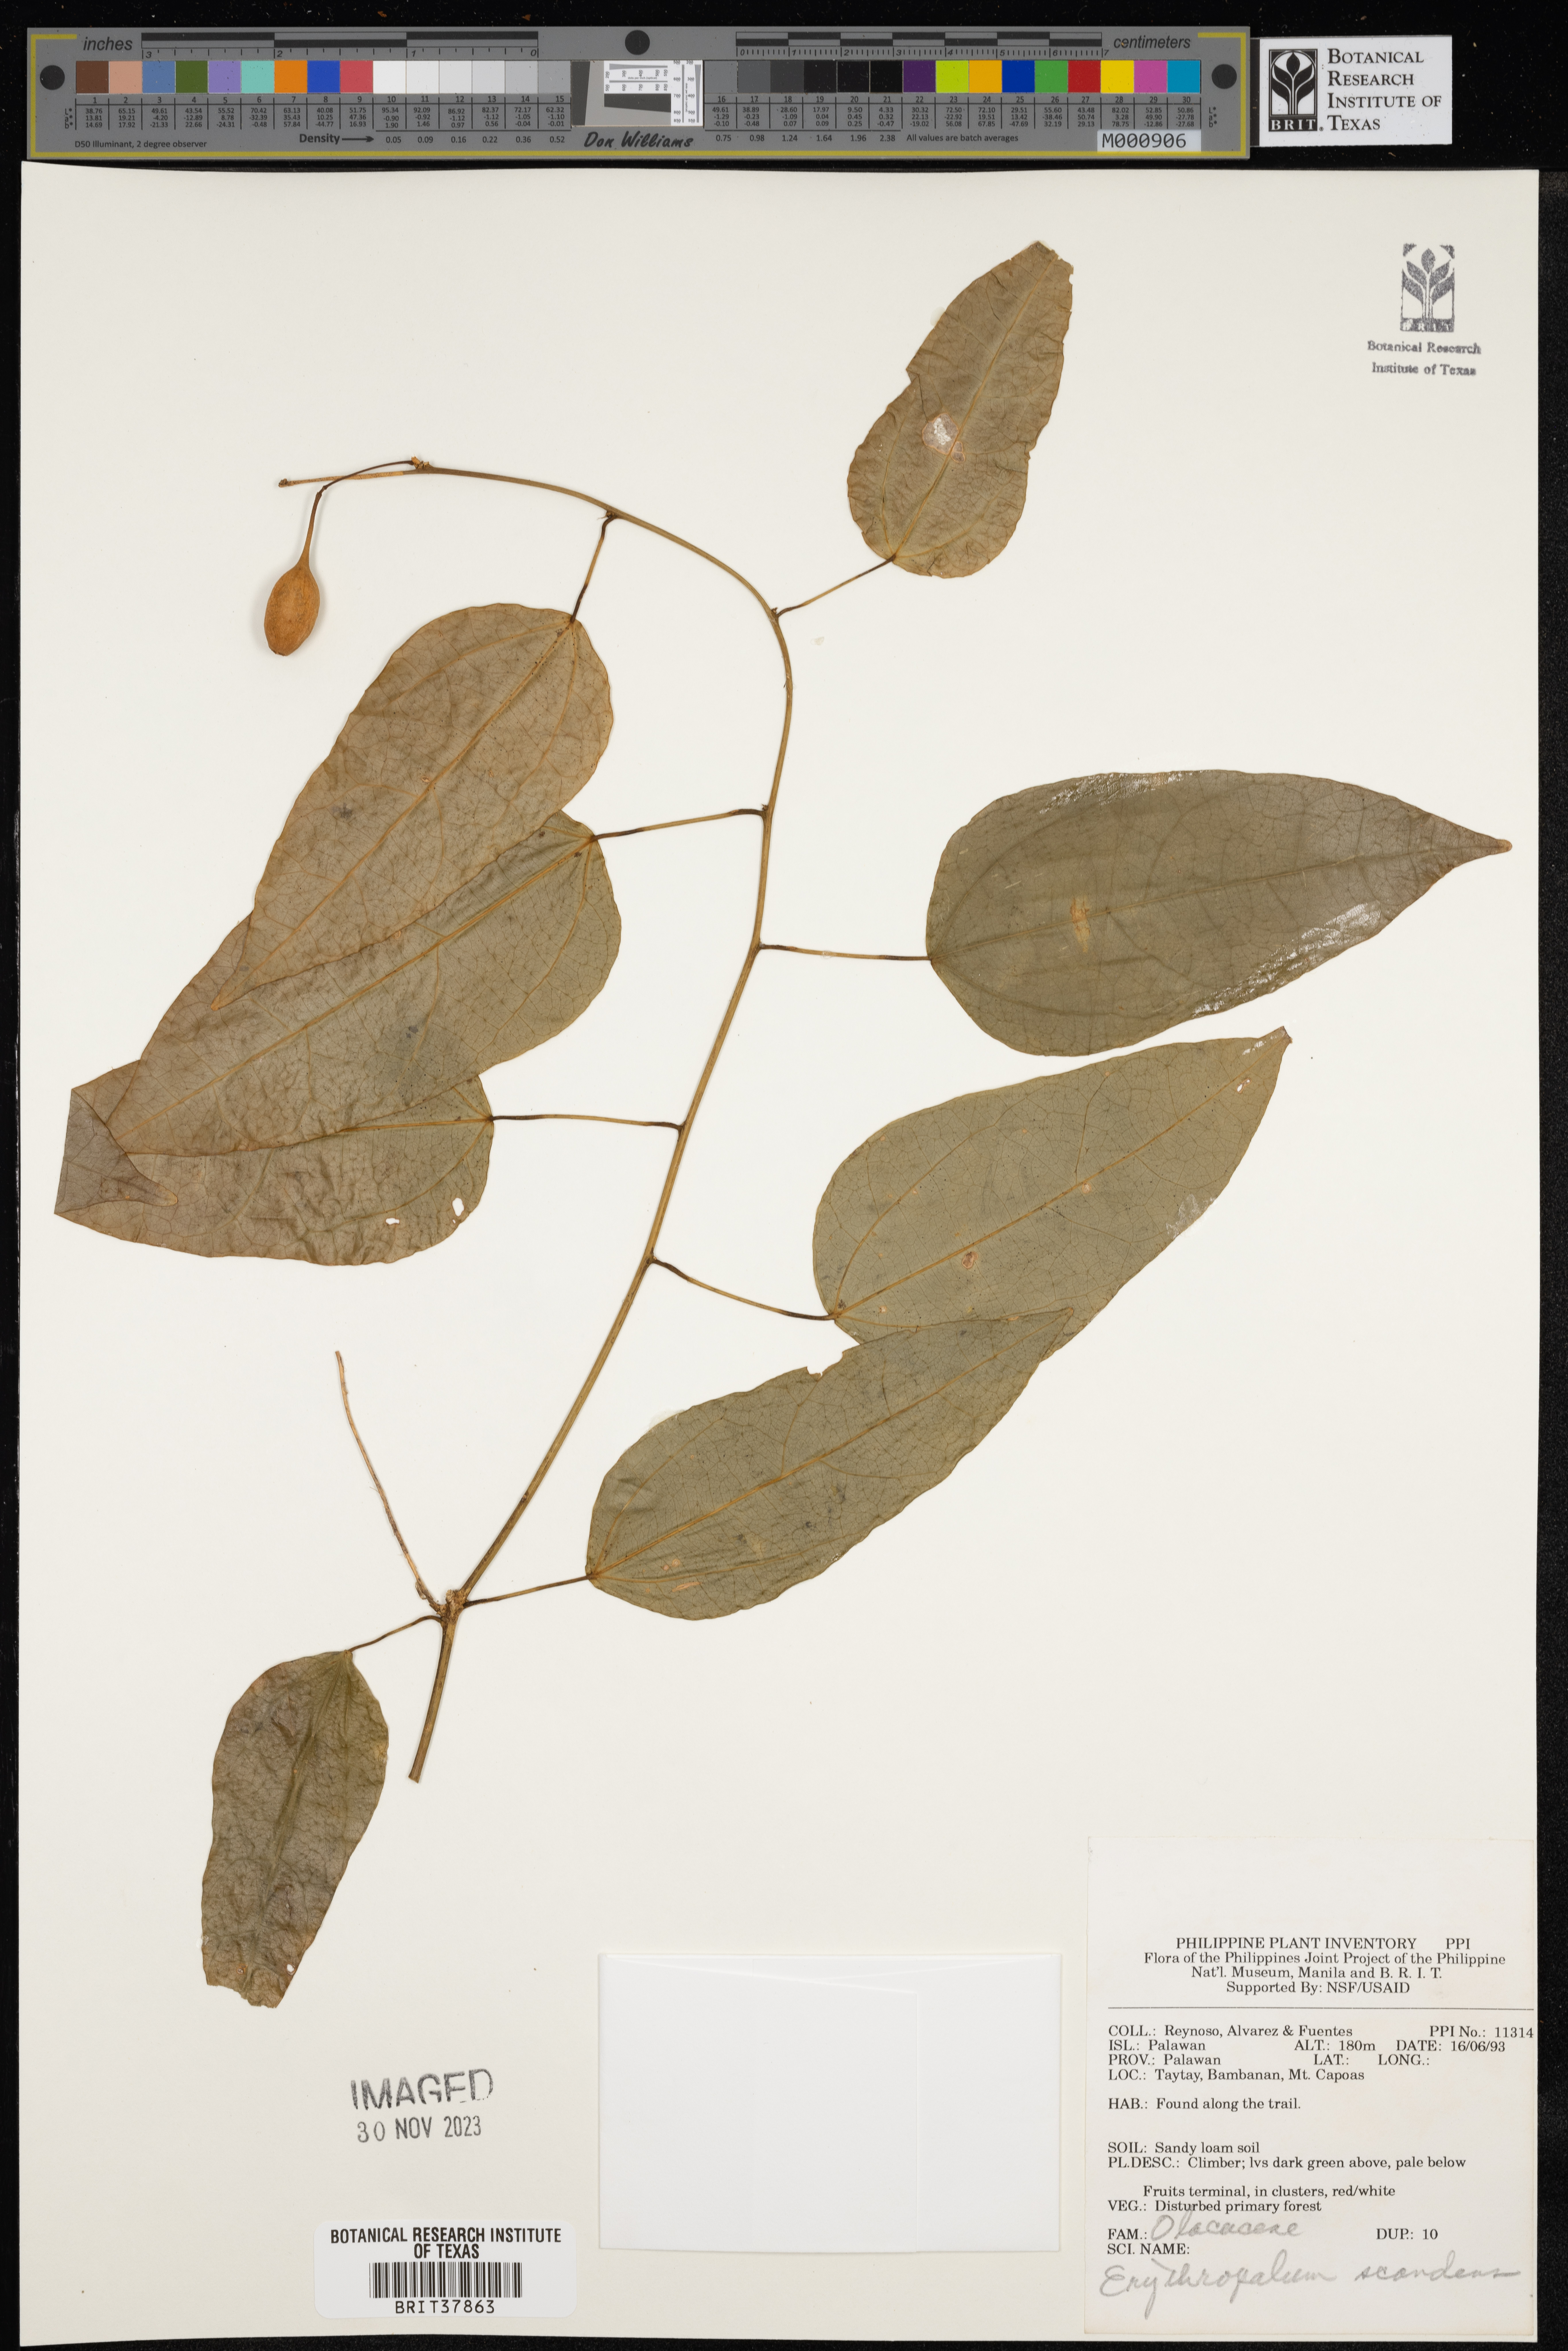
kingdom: Plantae
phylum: Tracheophyta
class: Magnoliopsida
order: Santalales
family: Erythropalaceae
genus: Erythropalum
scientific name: Erythropalum scandens
